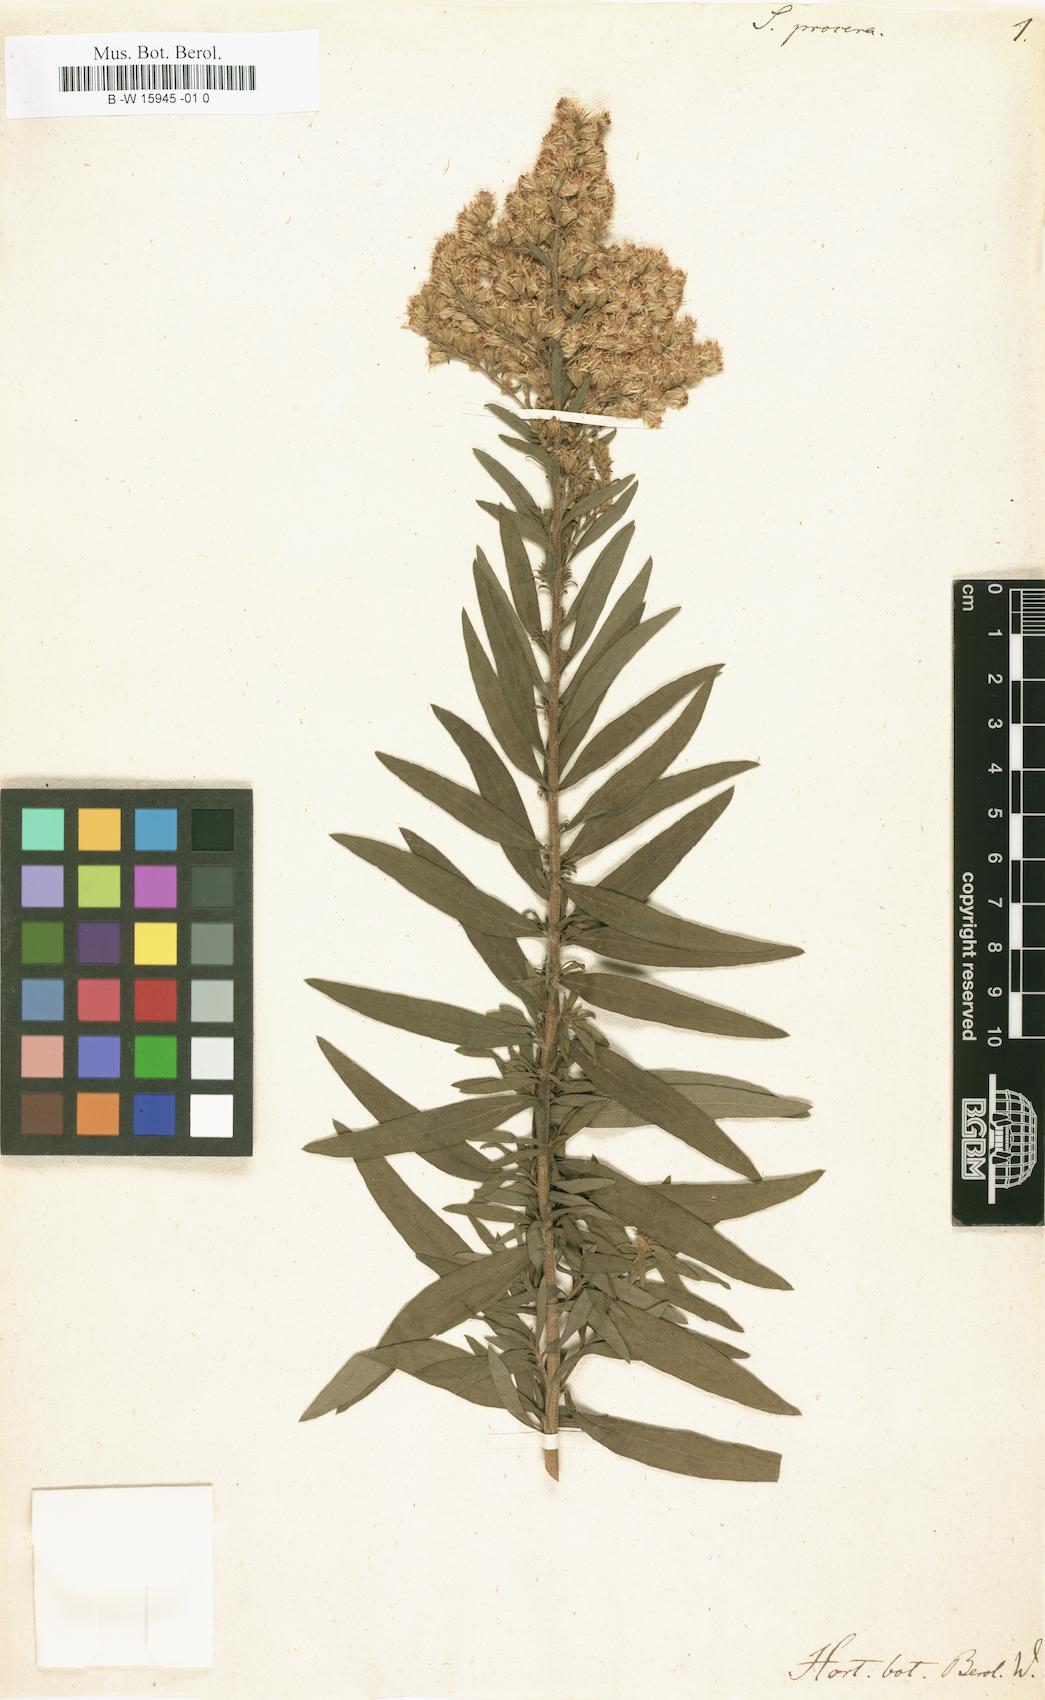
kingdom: Plantae
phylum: Tracheophyta
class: Magnoliopsida
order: Asterales
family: Asteraceae
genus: Solidago
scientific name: Solidago altissima
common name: Late goldenrod
